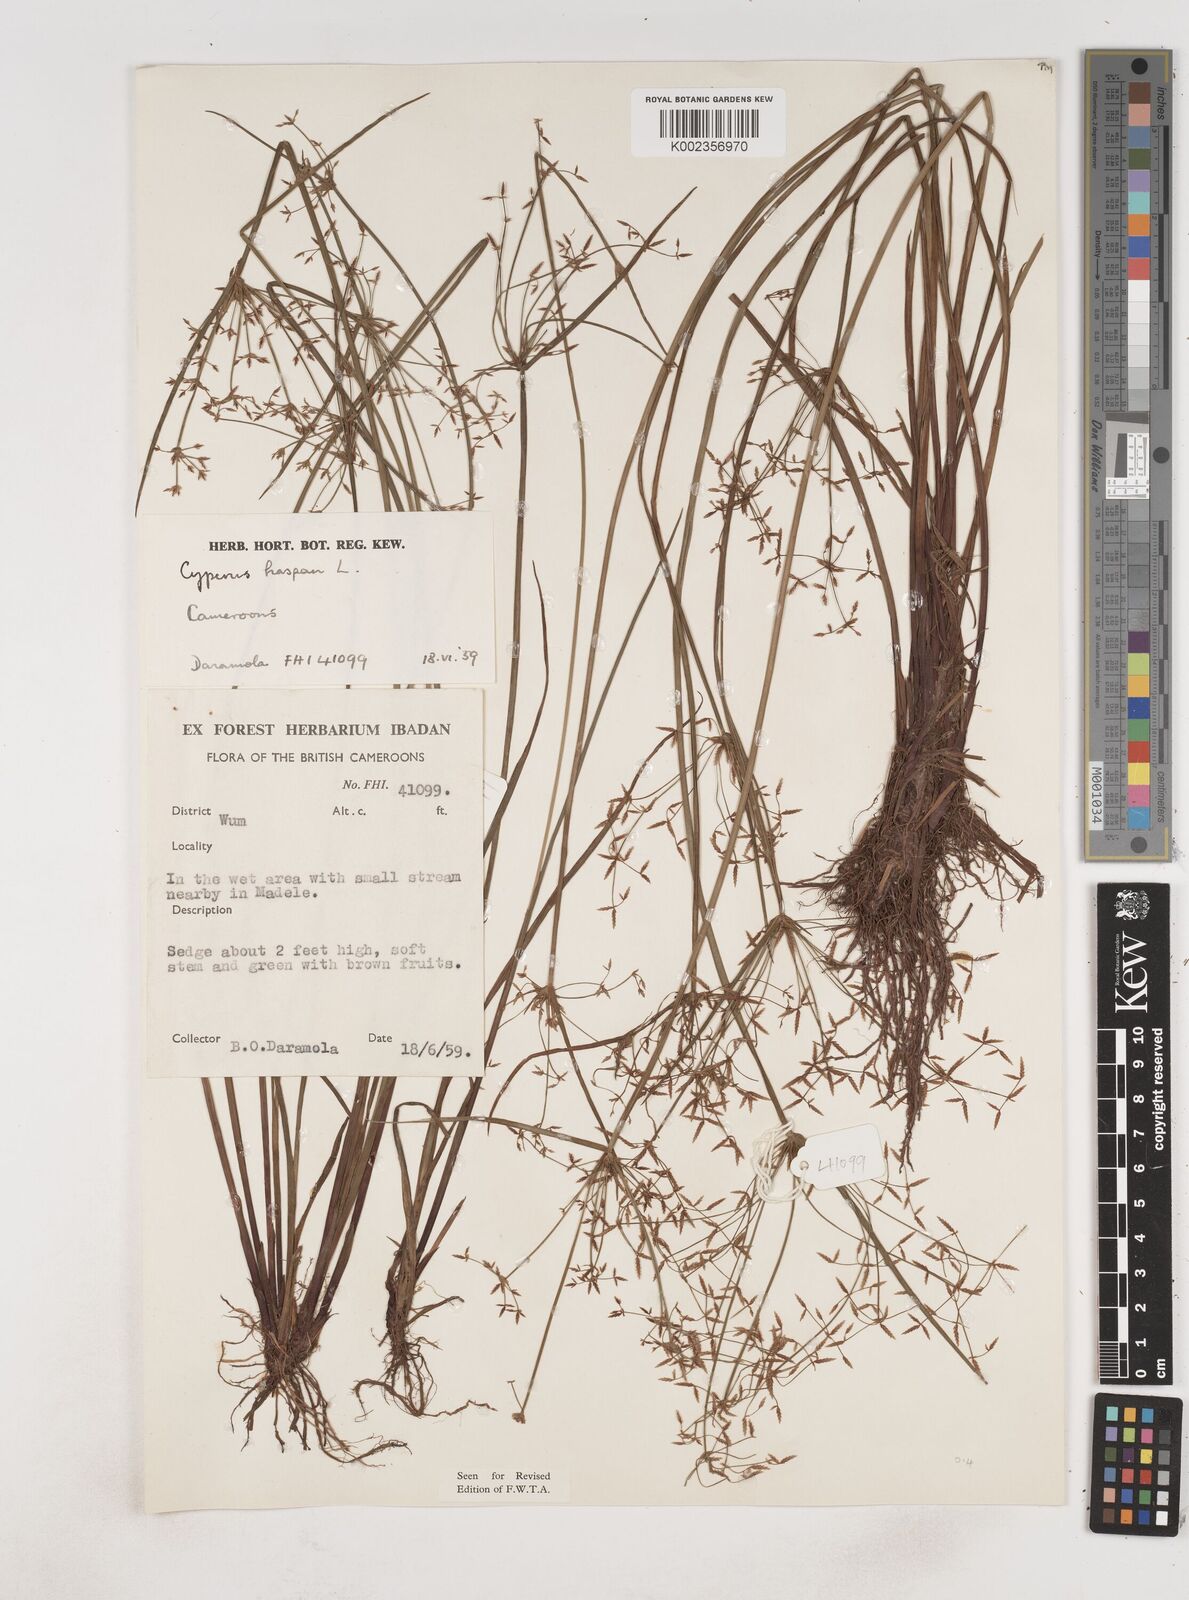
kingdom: Plantae
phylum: Tracheophyta
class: Liliopsida
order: Poales
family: Cyperaceae
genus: Cyperus
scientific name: Cyperus haspan
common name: Haspan flatsedge
